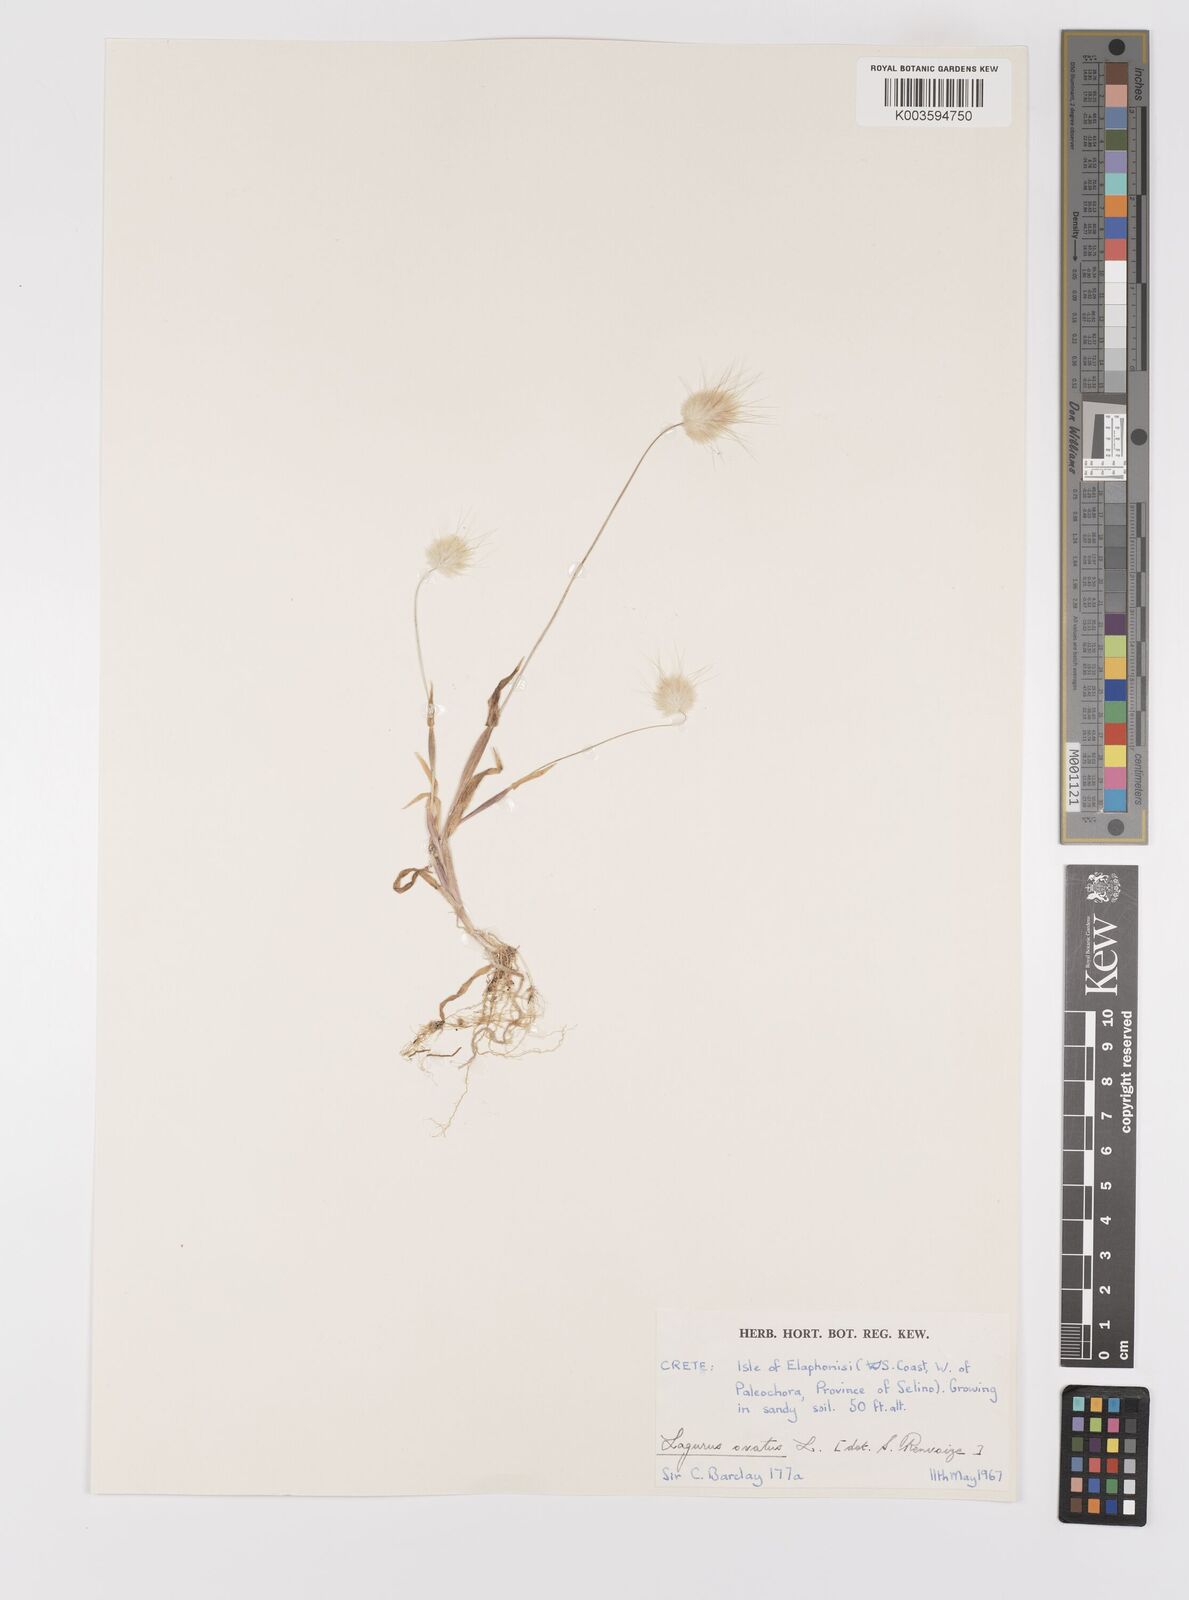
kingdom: Plantae
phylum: Tracheophyta
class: Liliopsida
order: Poales
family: Poaceae
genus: Lagurus
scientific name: Lagurus ovatus
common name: Hare's-tail
